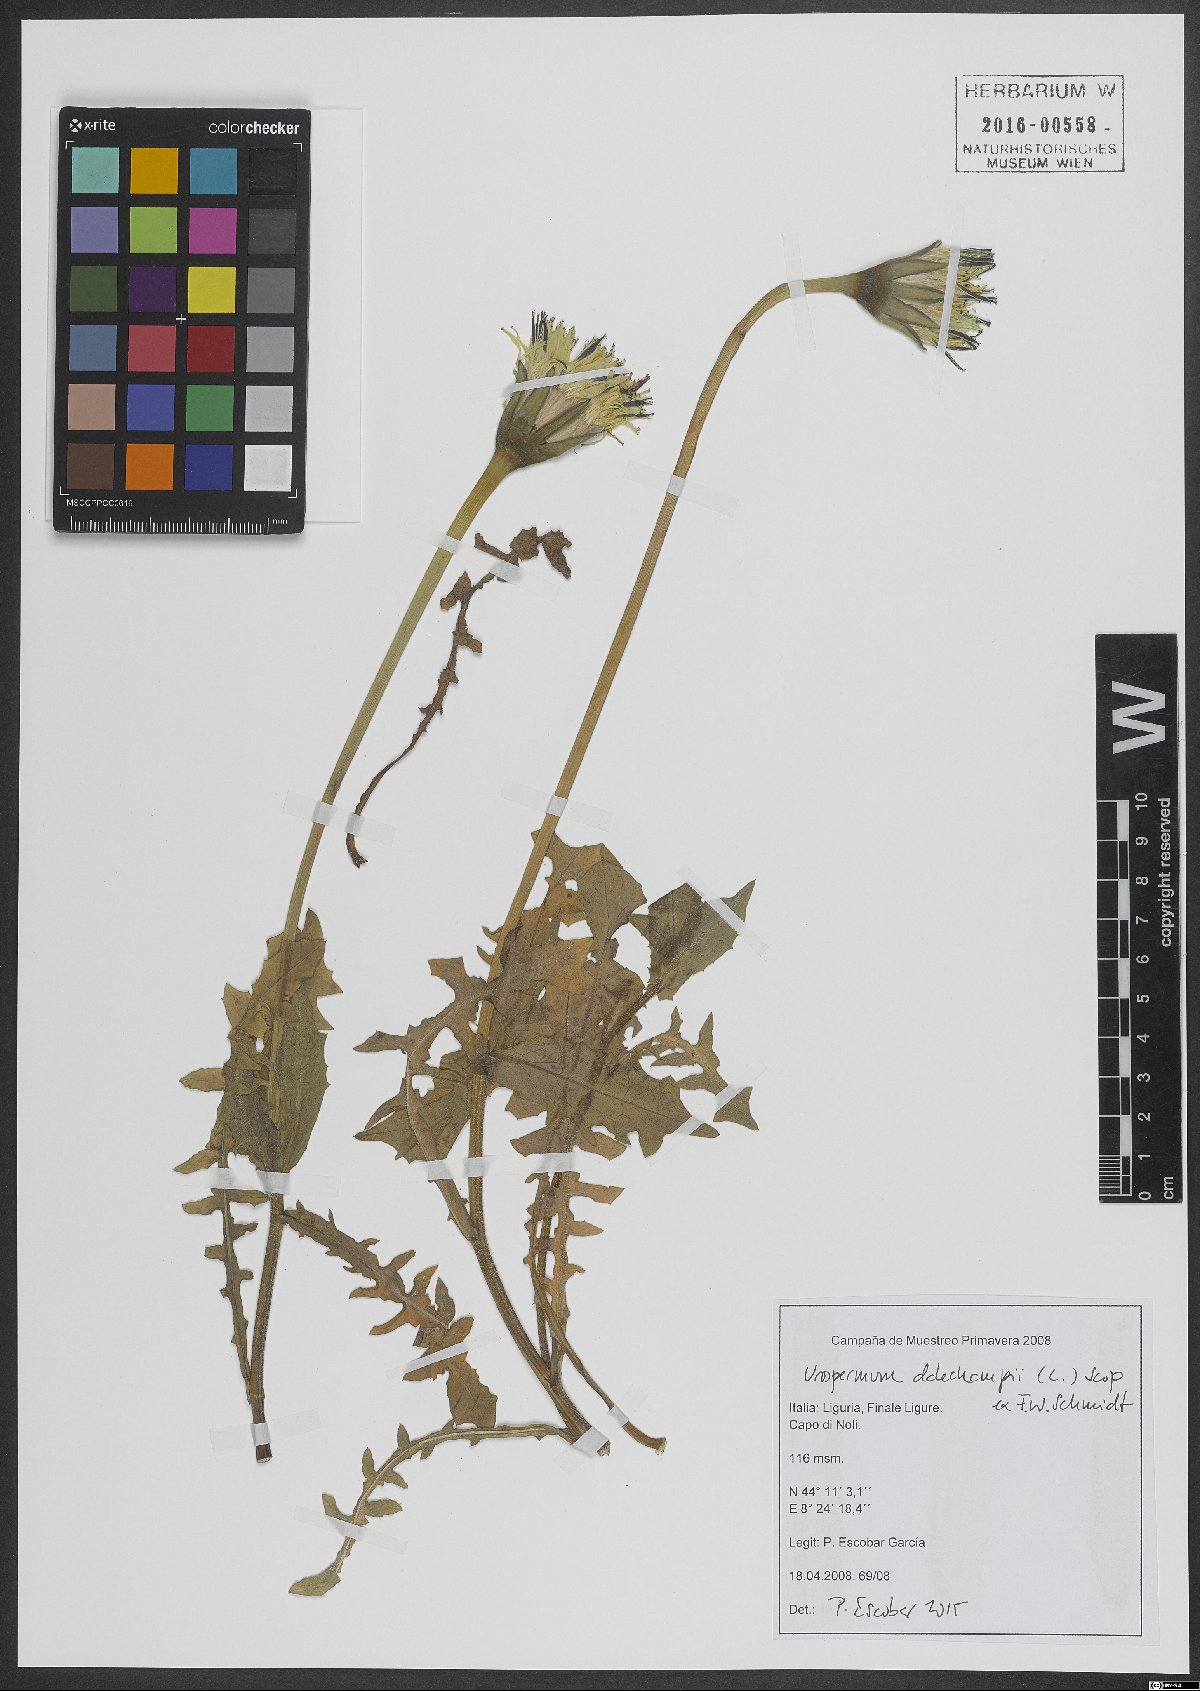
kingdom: Plantae
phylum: Tracheophyta
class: Magnoliopsida
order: Asterales
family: Asteraceae
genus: Urospermum
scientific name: Urospermum dalechampii
